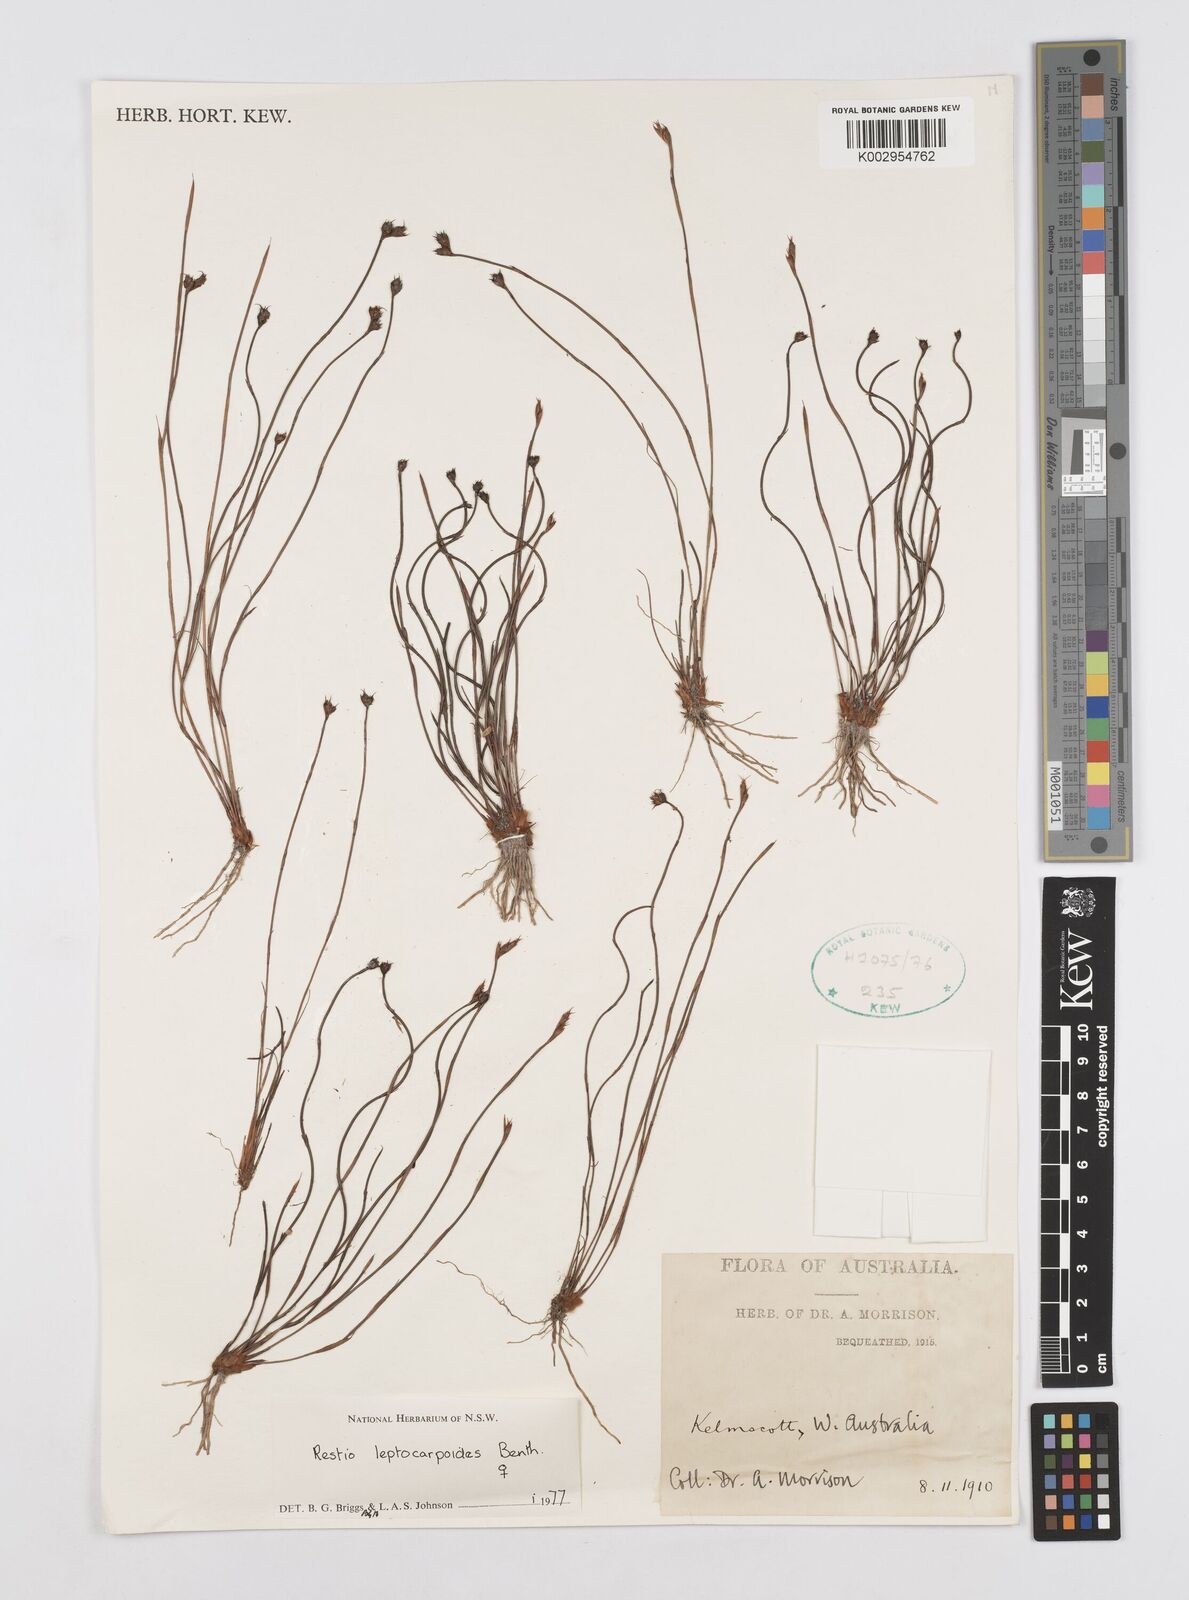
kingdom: Plantae
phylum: Tracheophyta
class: Liliopsida
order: Poales
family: Restionaceae
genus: Cytogonidium
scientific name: Cytogonidium leptocarpoides
